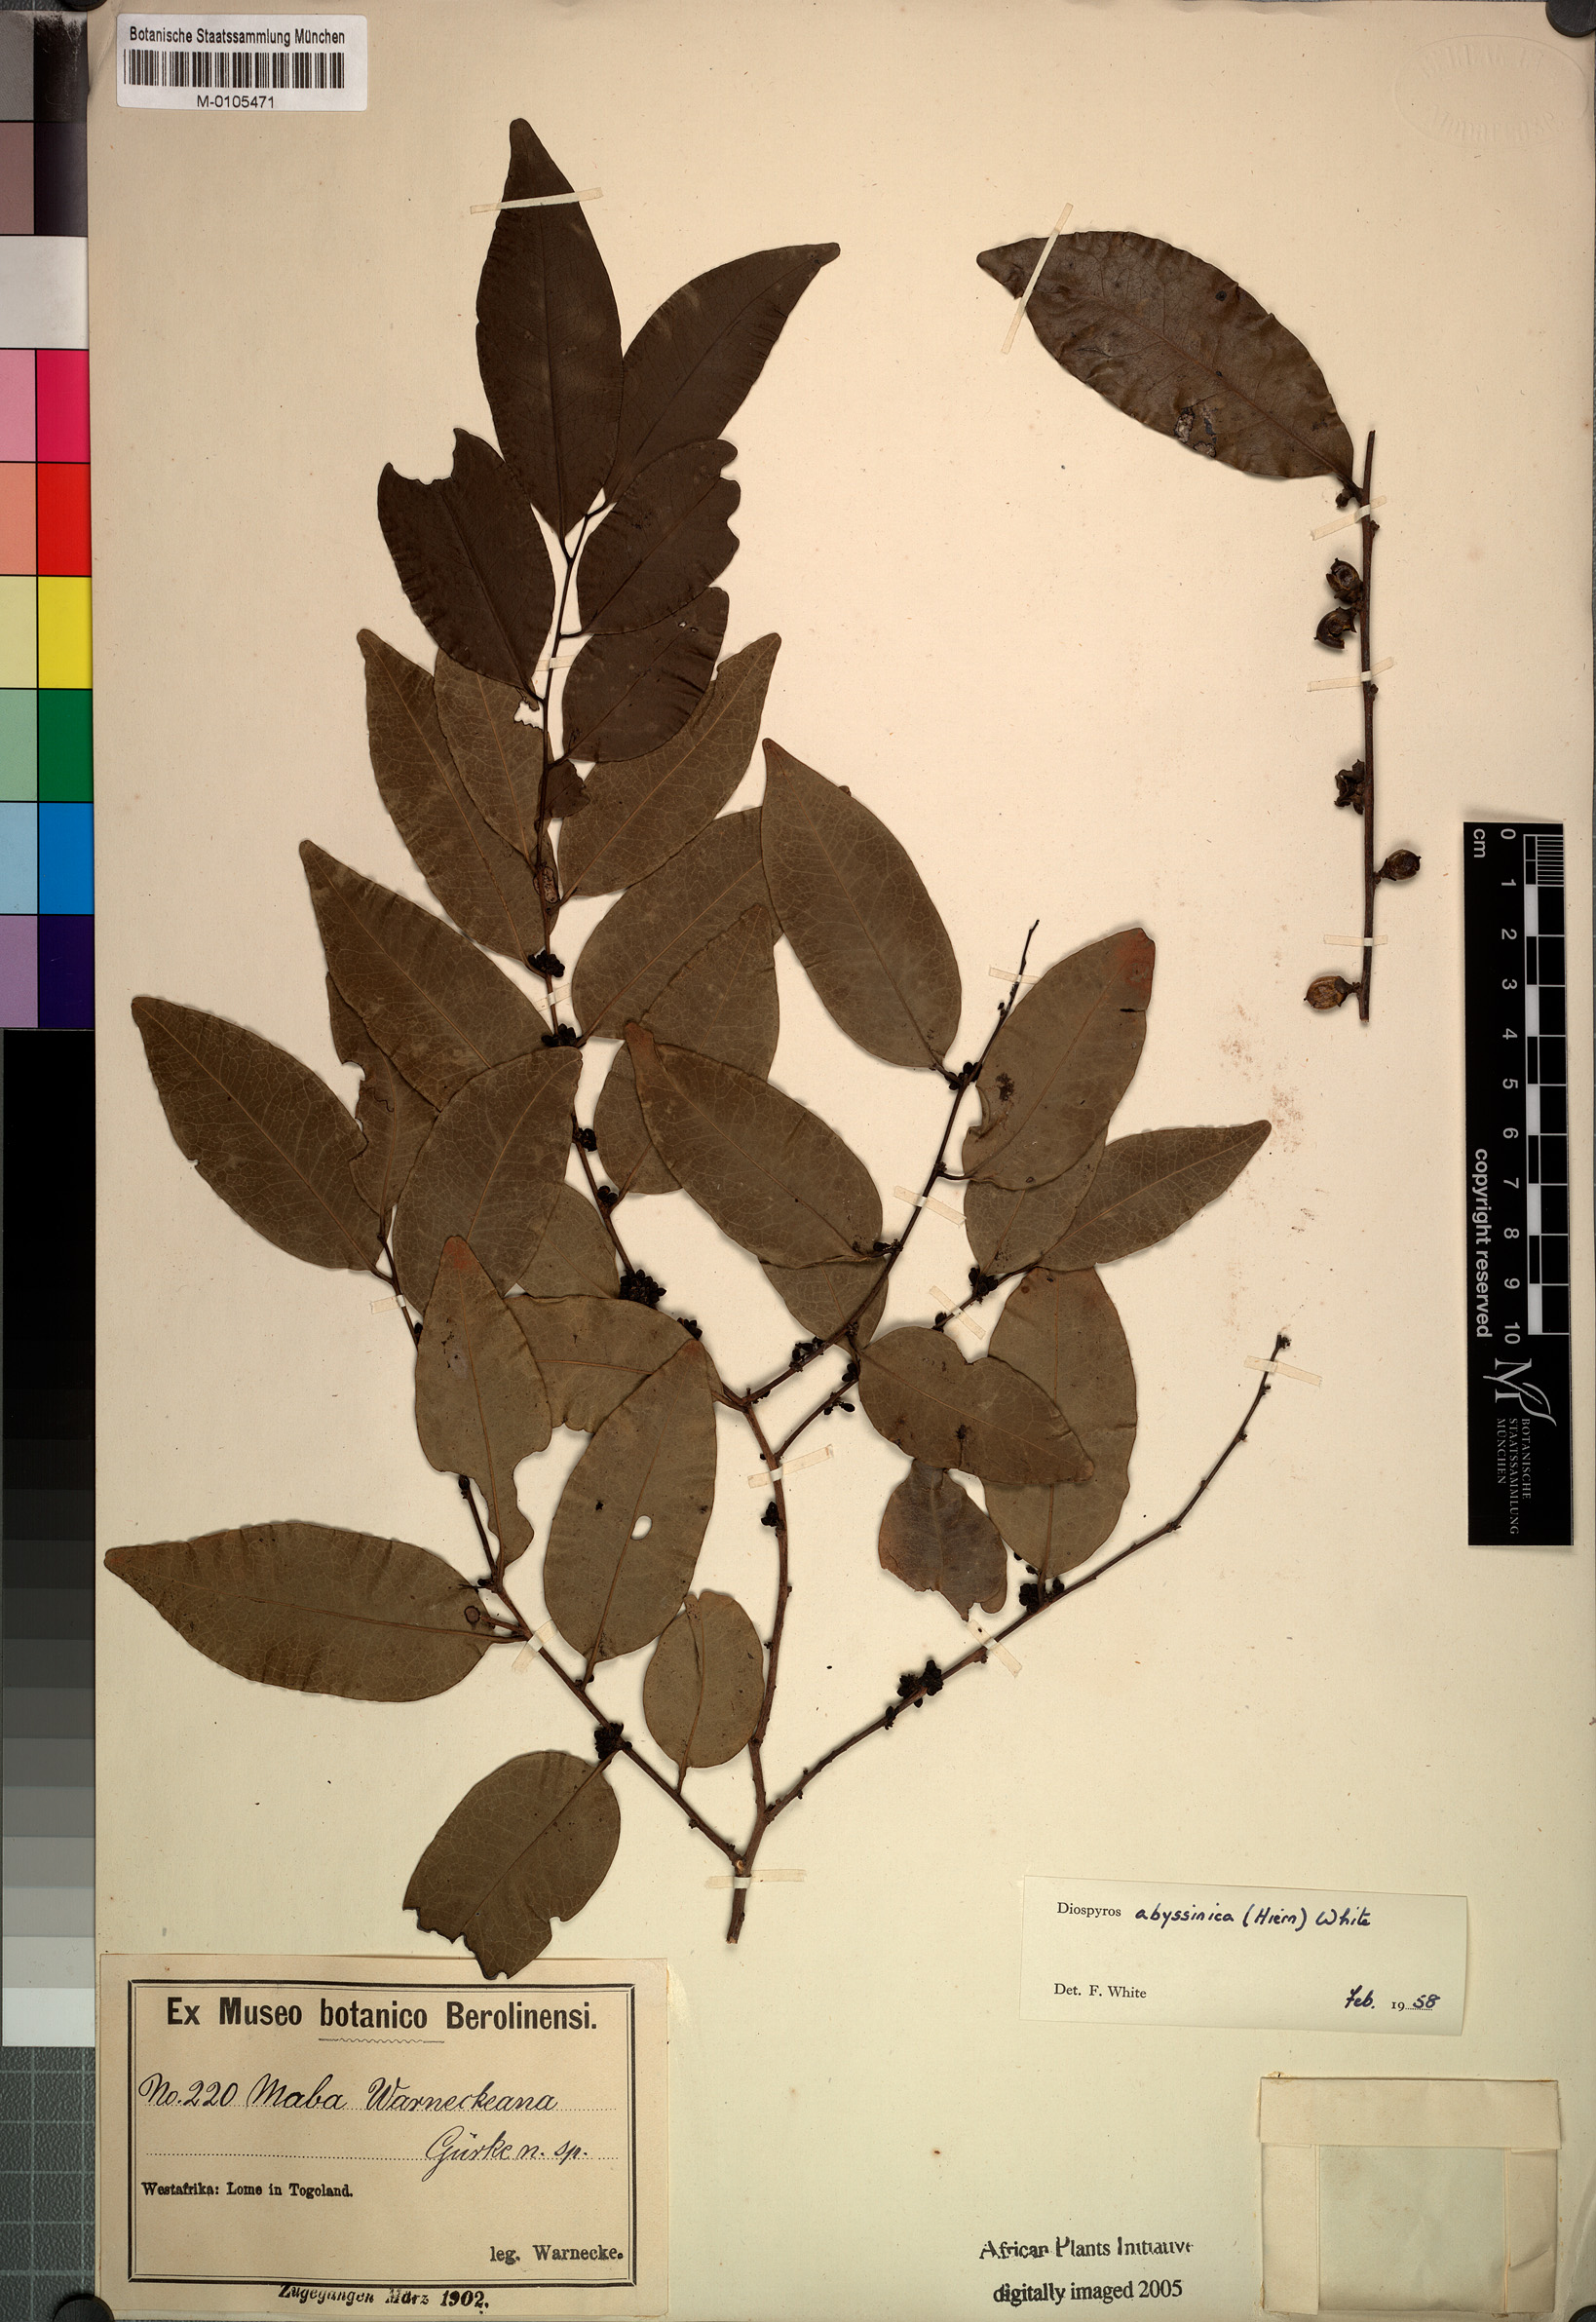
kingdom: Plantae
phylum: Tracheophyta
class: Magnoliopsida
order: Ericales
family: Ebenaceae
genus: Diospyros
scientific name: Diospyros abyssinica
